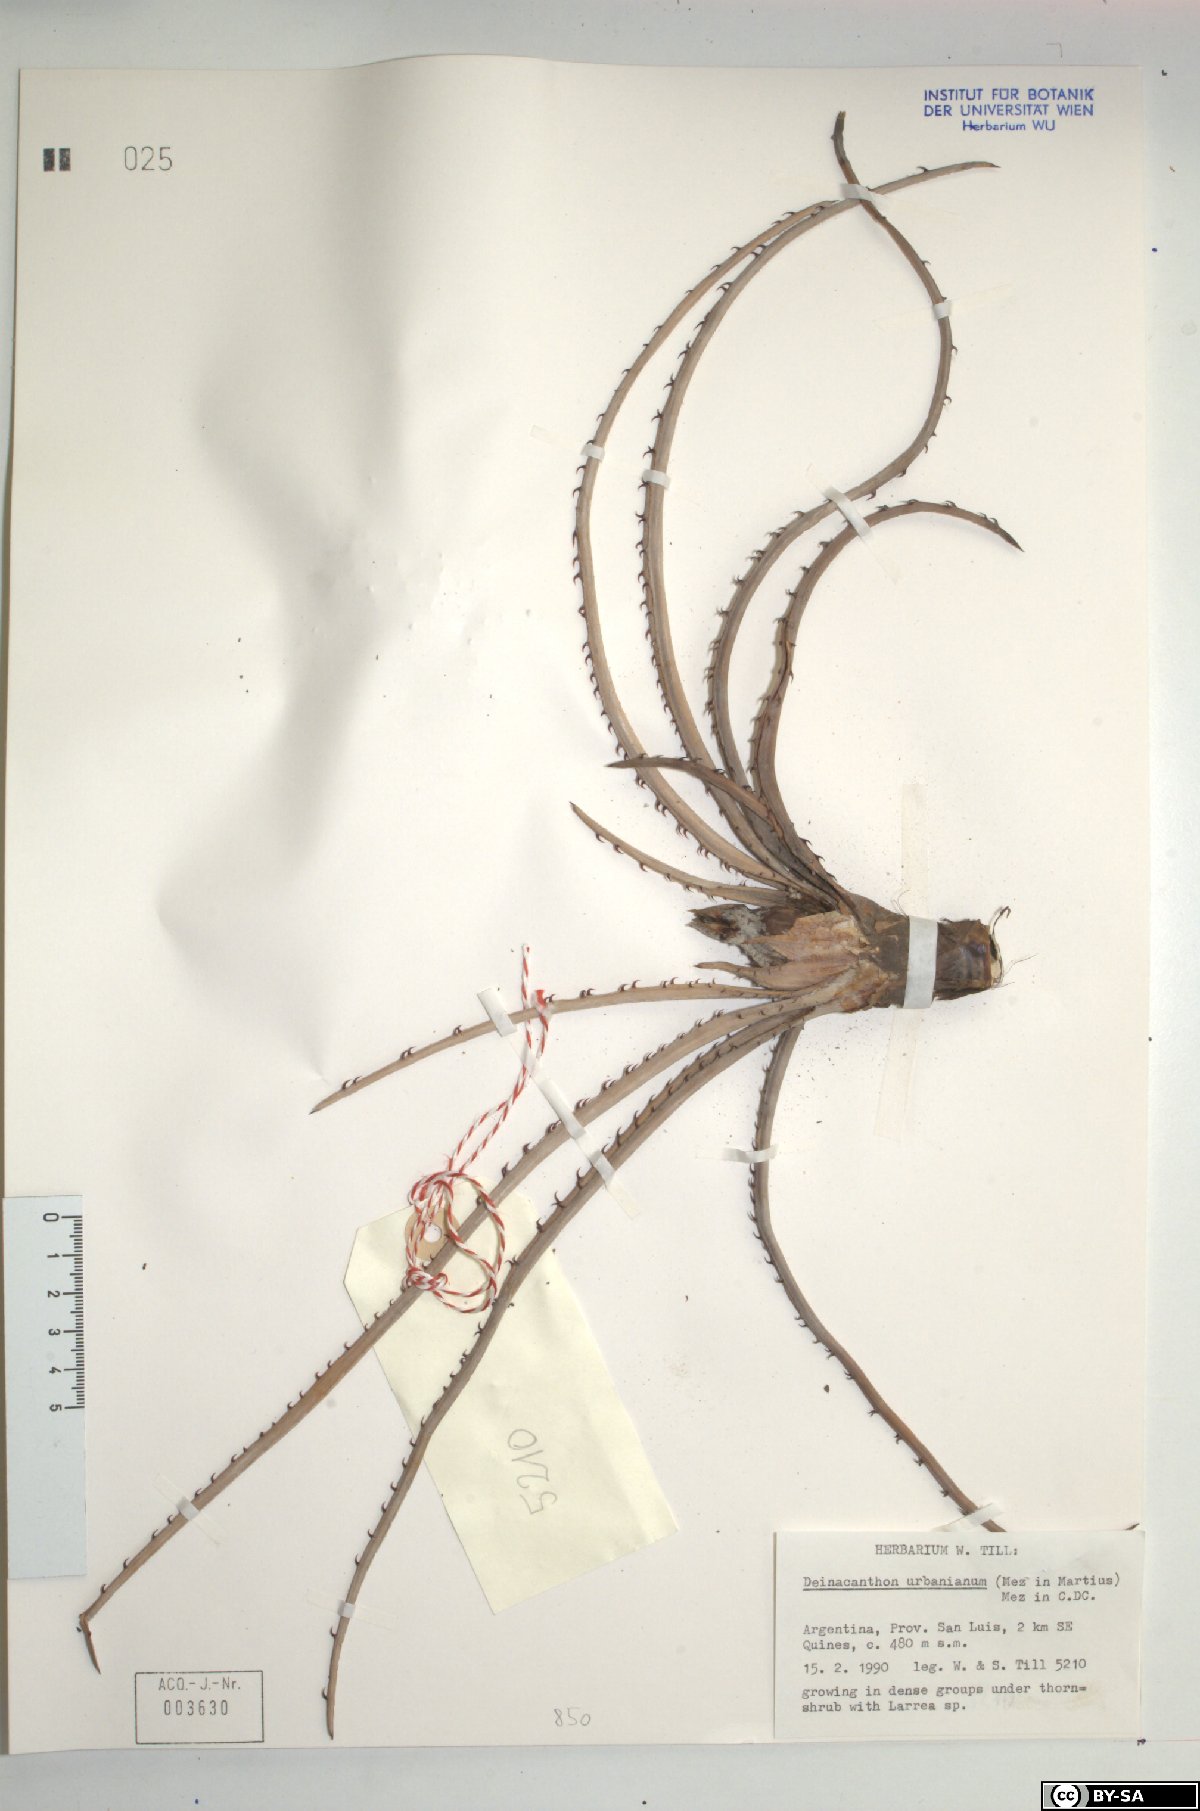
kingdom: Plantae
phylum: Tracheophyta
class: Liliopsida
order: Poales
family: Bromeliaceae
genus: Deinacanthon
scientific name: Deinacanthon urbanianum
